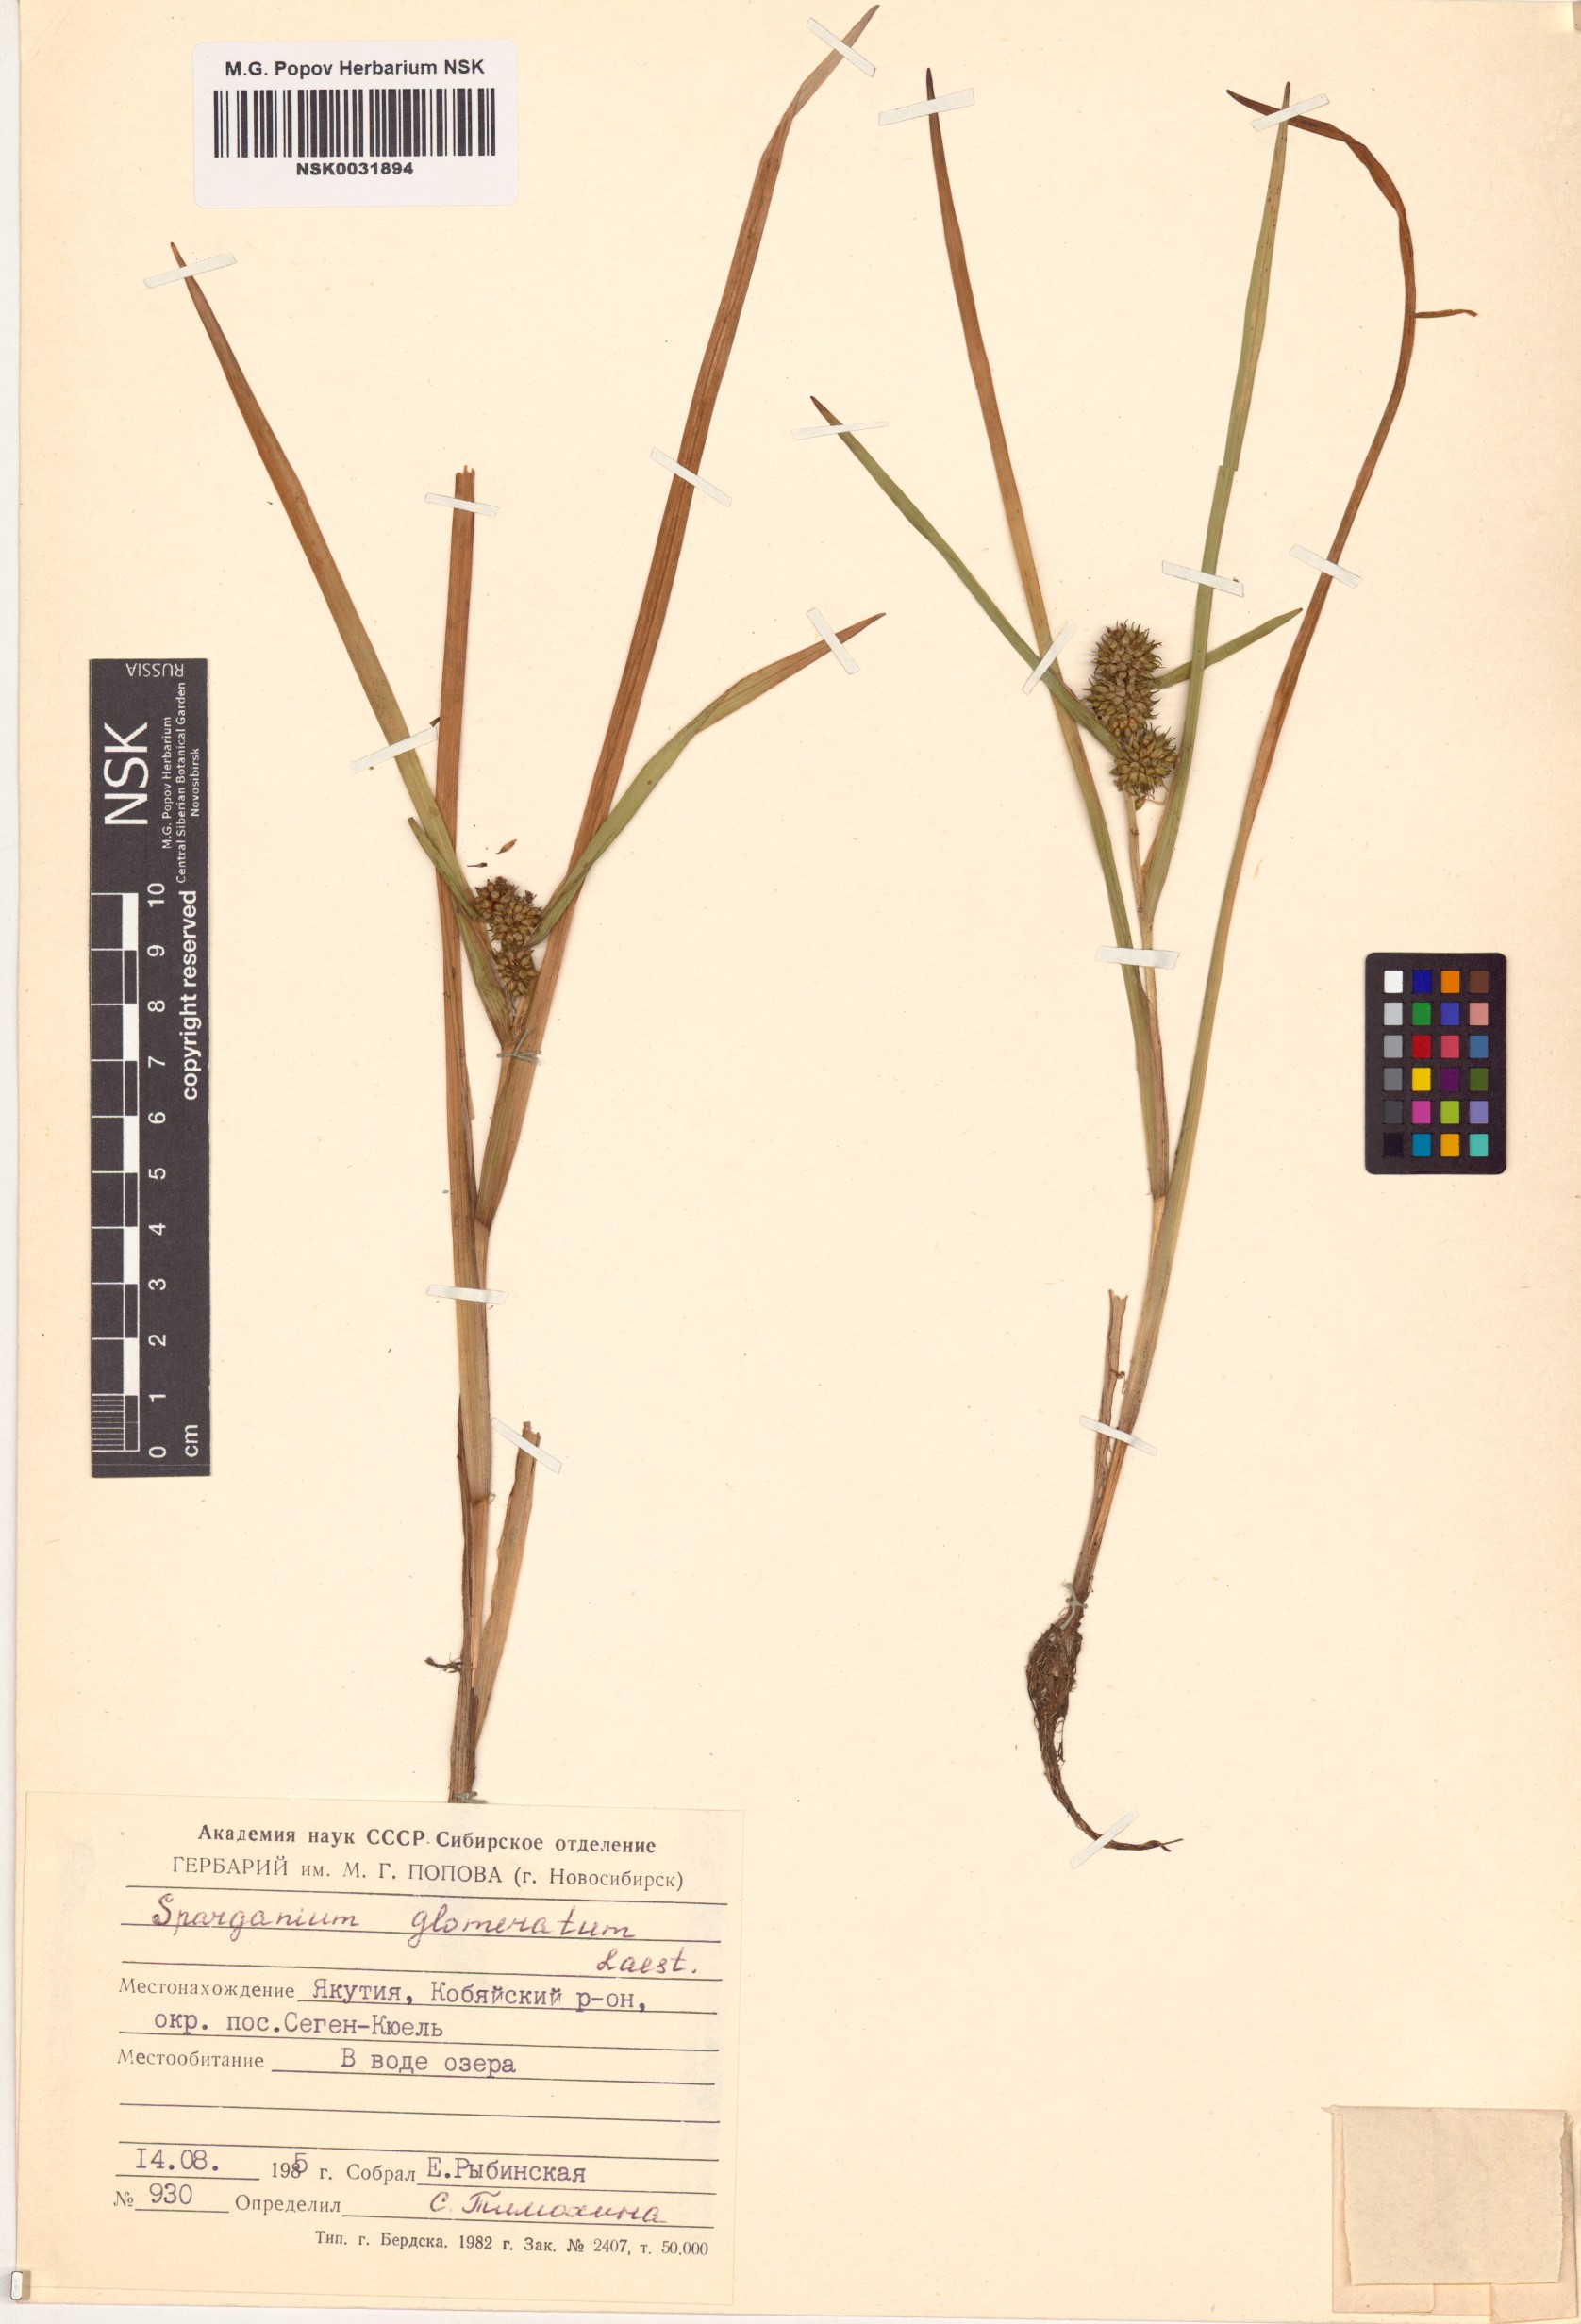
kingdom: Plantae
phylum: Tracheophyta
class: Liliopsida
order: Poales
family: Typhaceae
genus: Sparganium
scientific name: Sparganium glomeratum
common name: Clustered burreed
